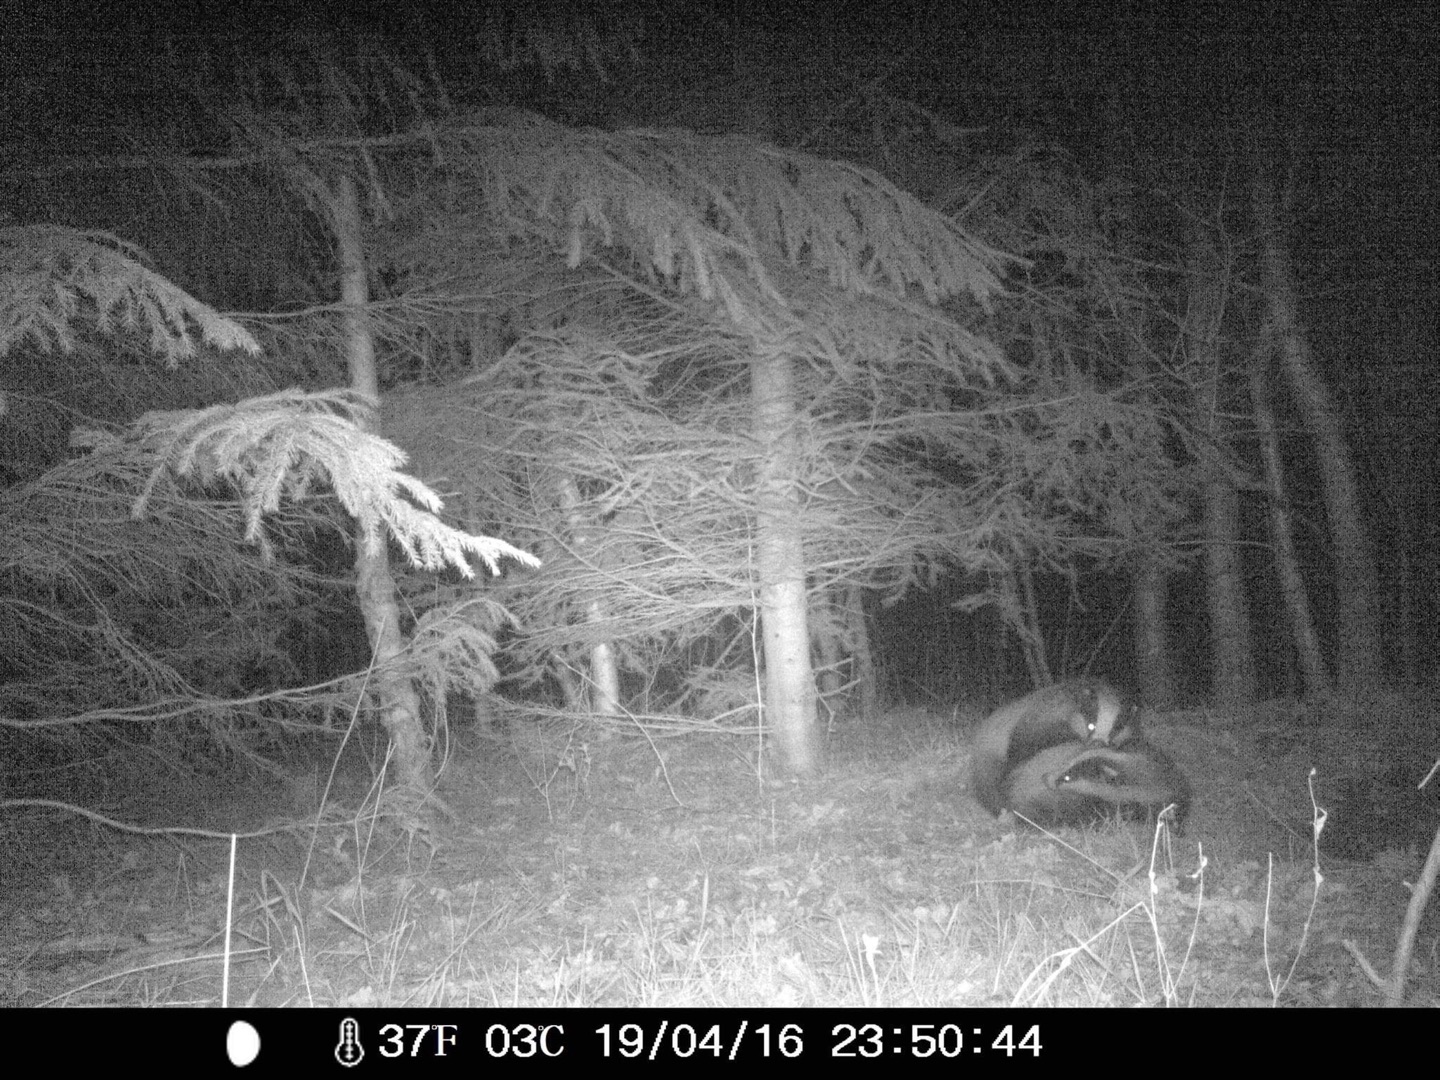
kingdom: Animalia
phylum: Chordata
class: Mammalia
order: Carnivora
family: Mustelidae
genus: Meles
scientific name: Meles meles
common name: Grævling
